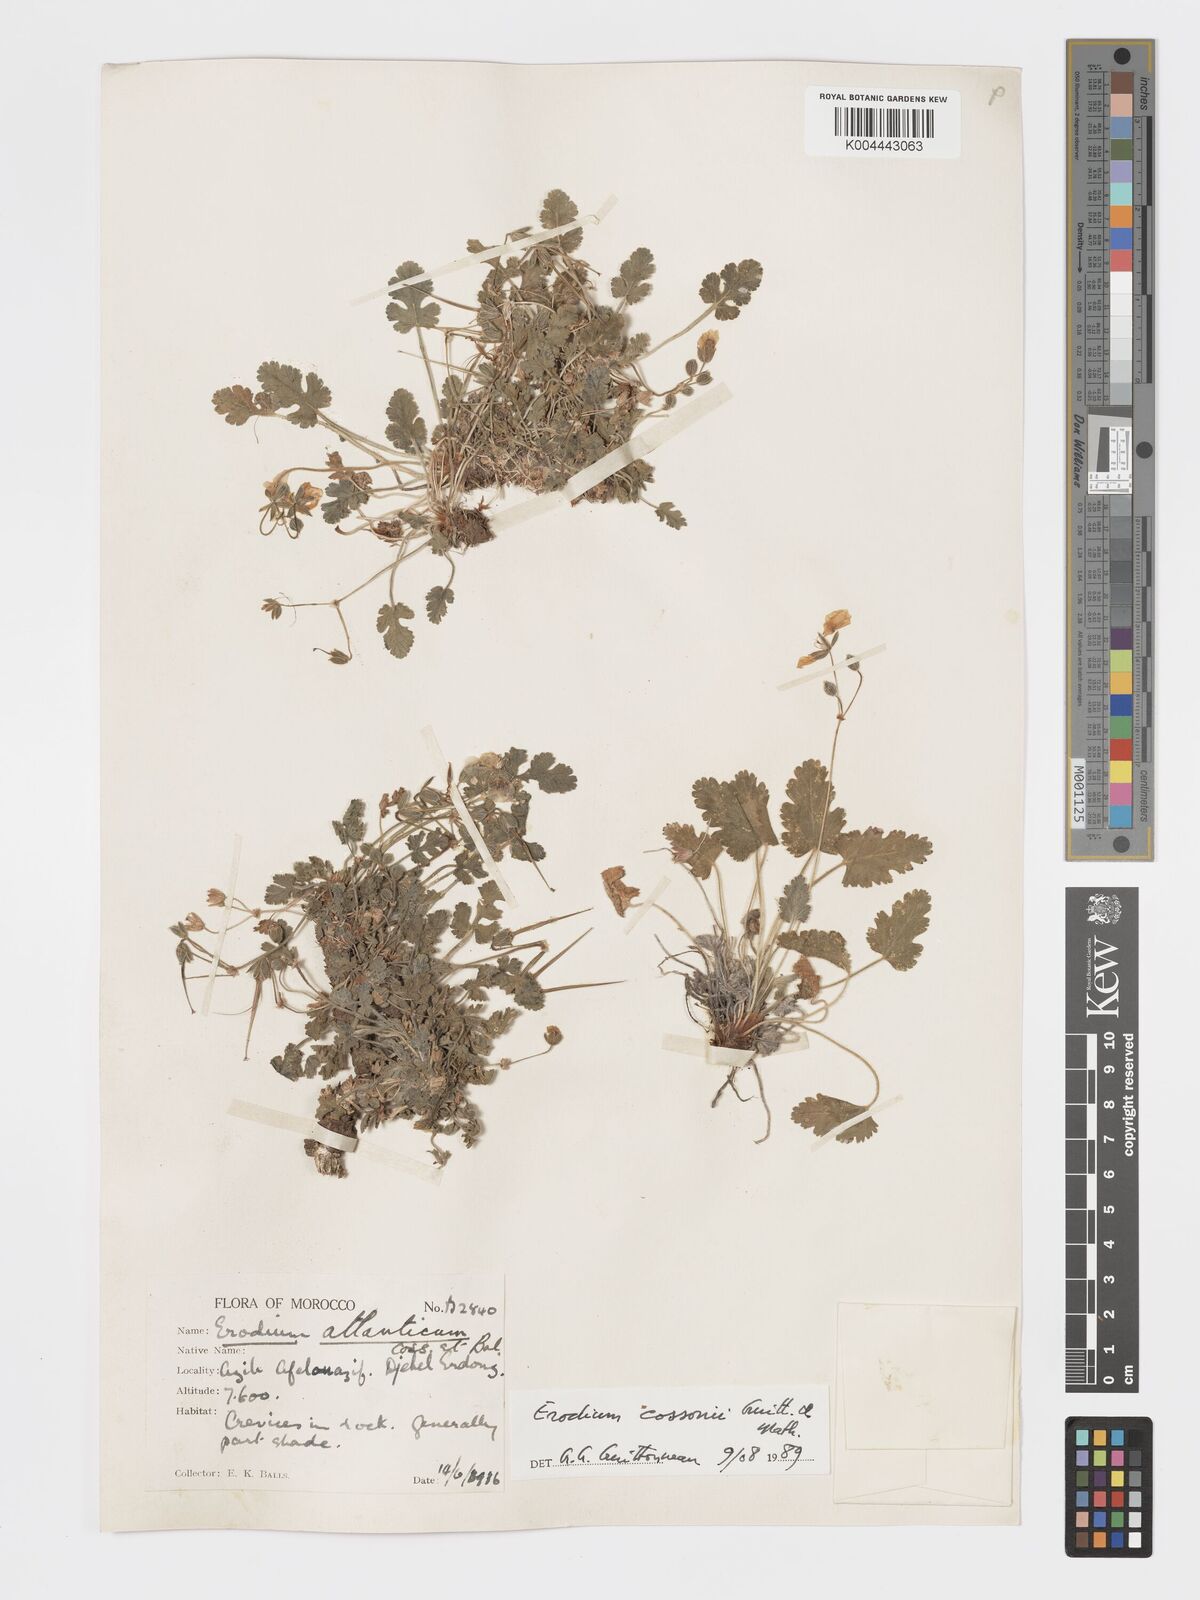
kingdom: Plantae
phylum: Tracheophyta
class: Magnoliopsida
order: Geraniales
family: Geraniaceae
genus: Erodium
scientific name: Erodium atlanticum
